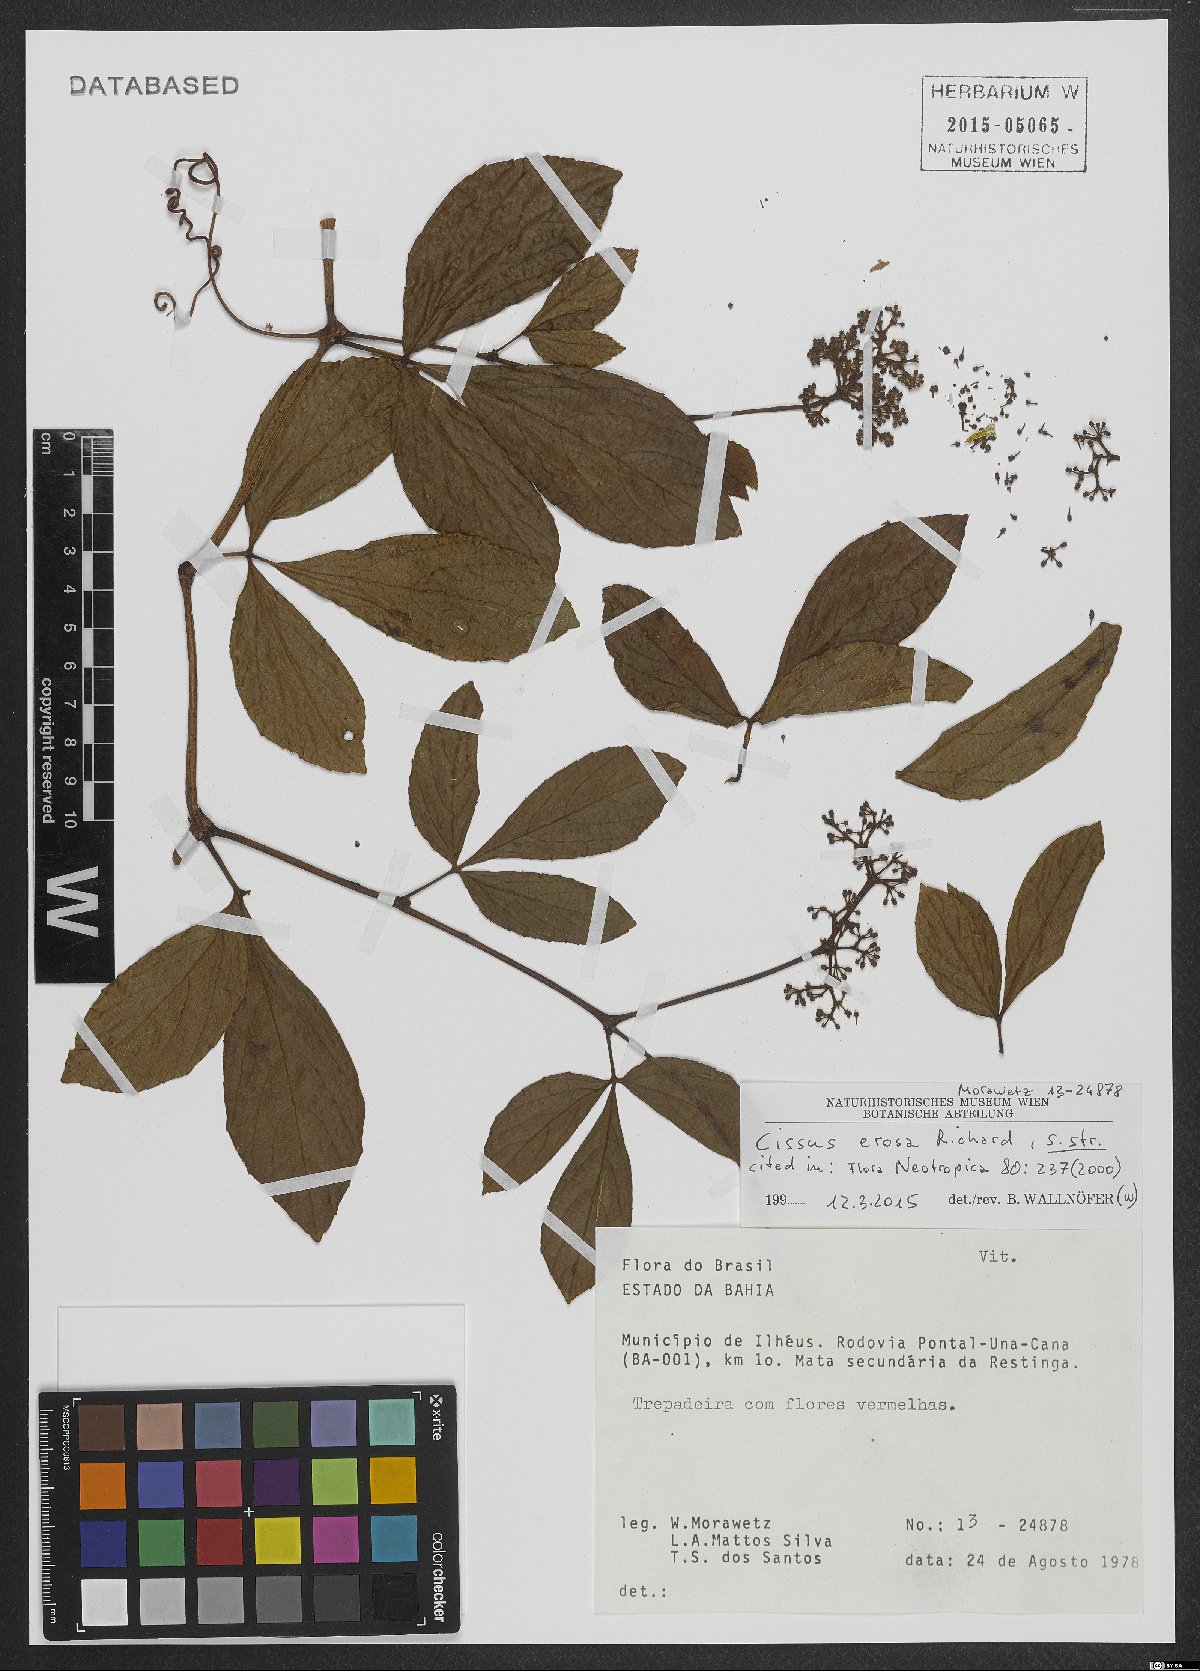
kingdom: Plantae
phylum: Tracheophyta
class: Magnoliopsida
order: Vitales
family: Vitaceae
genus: Cissus
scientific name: Cissus erosa
